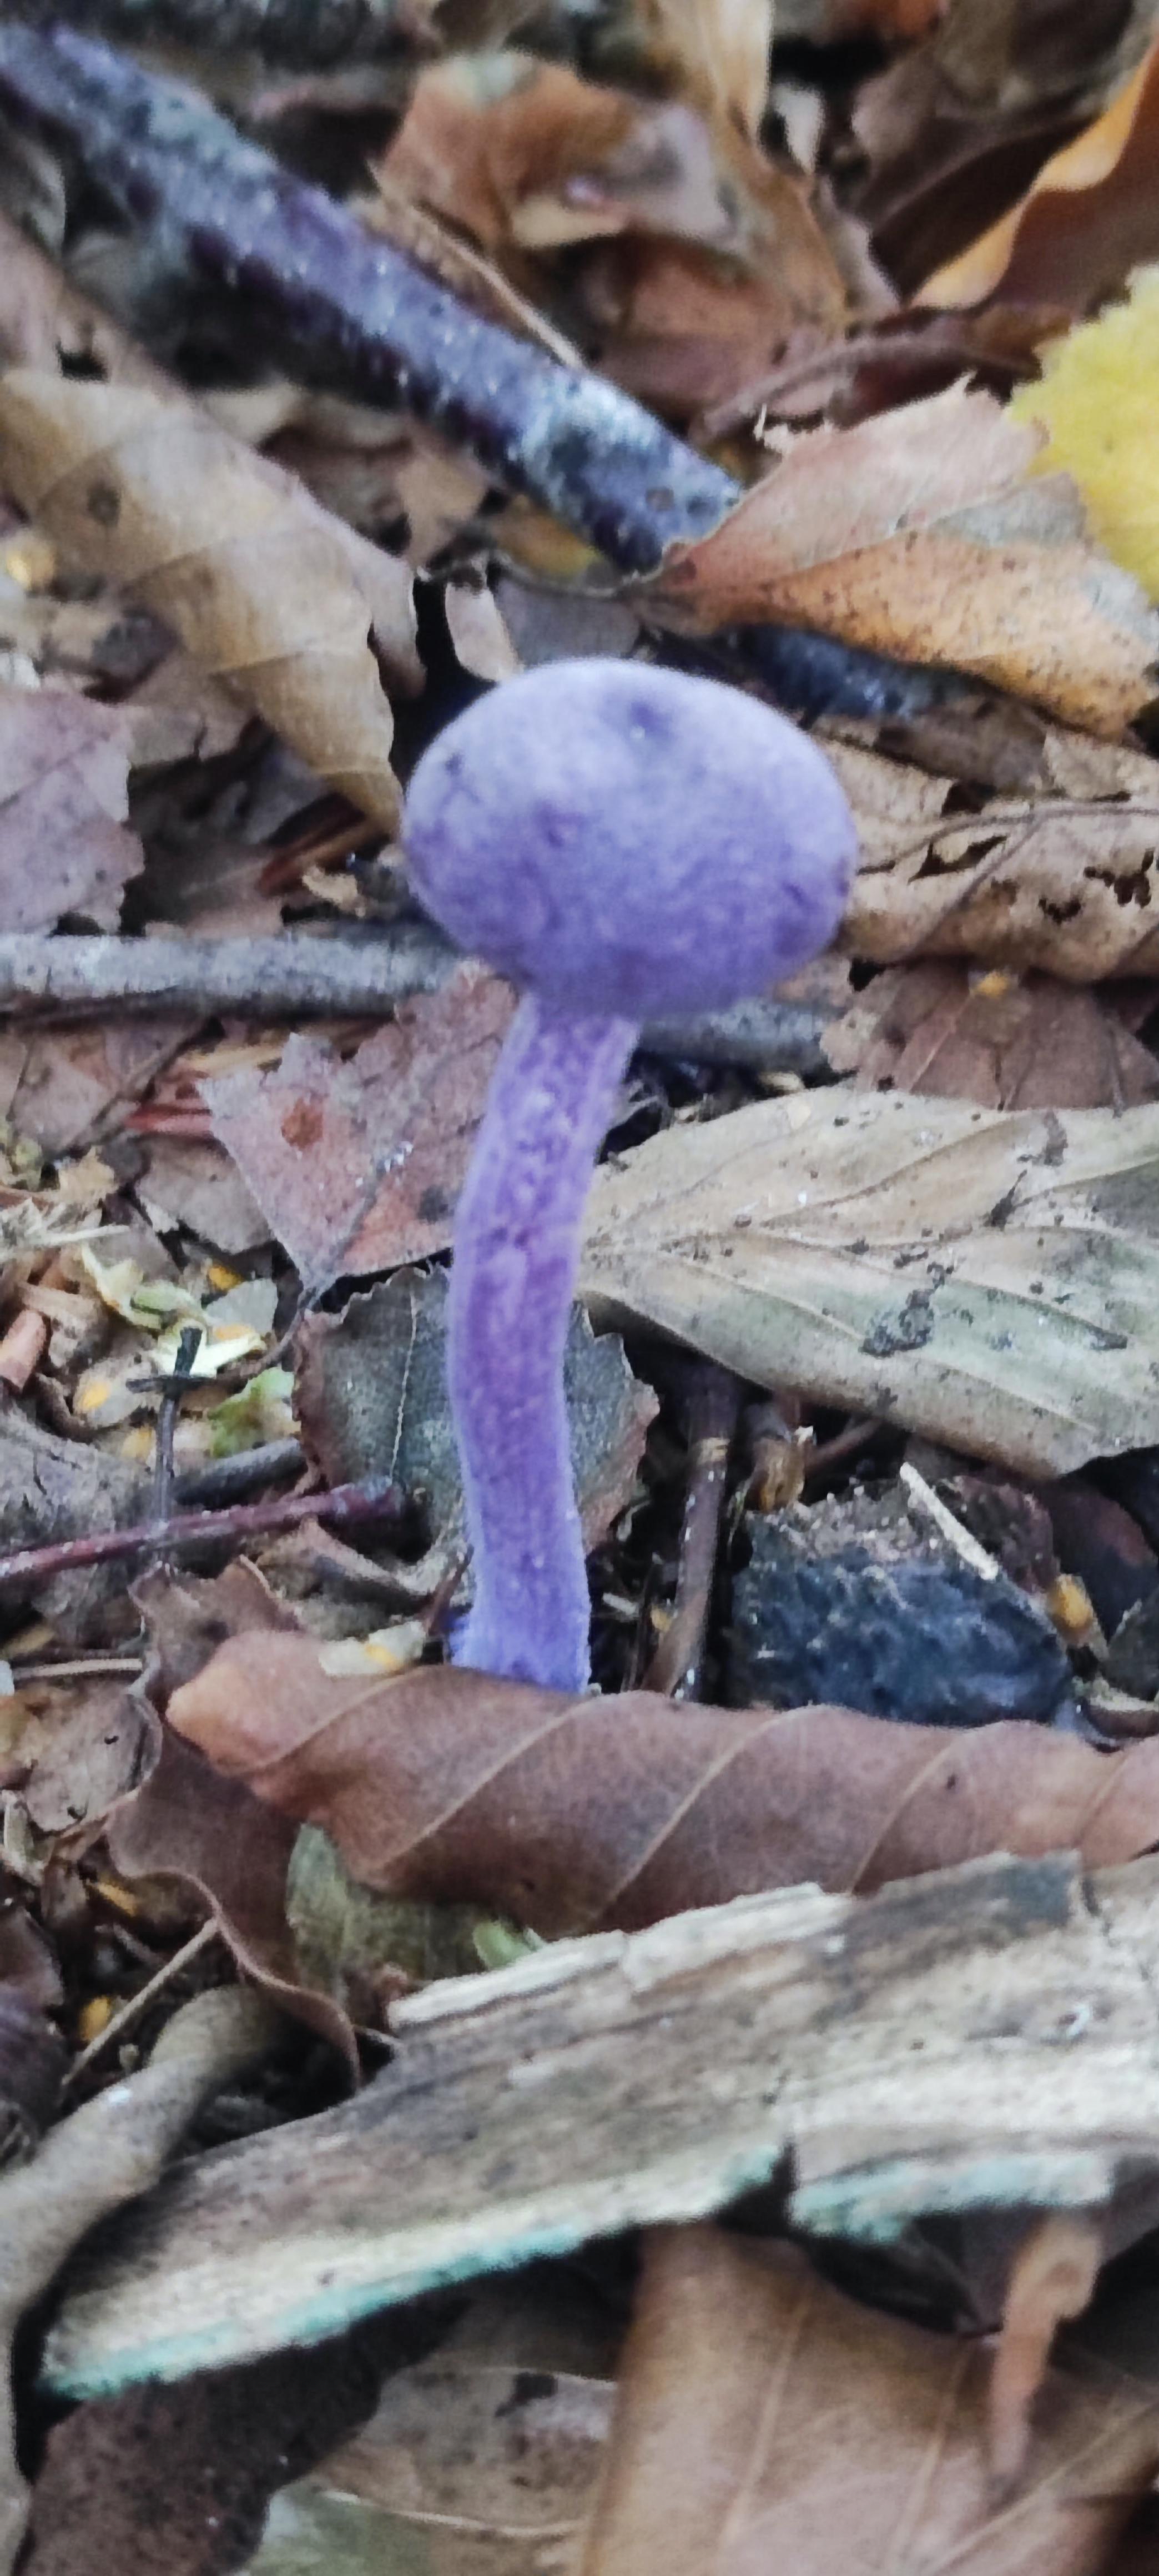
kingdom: Fungi
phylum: Basidiomycota
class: Agaricomycetes
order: Agaricales
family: Hydnangiaceae
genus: Laccaria
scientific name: Laccaria amethystina
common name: violet ametysthat
